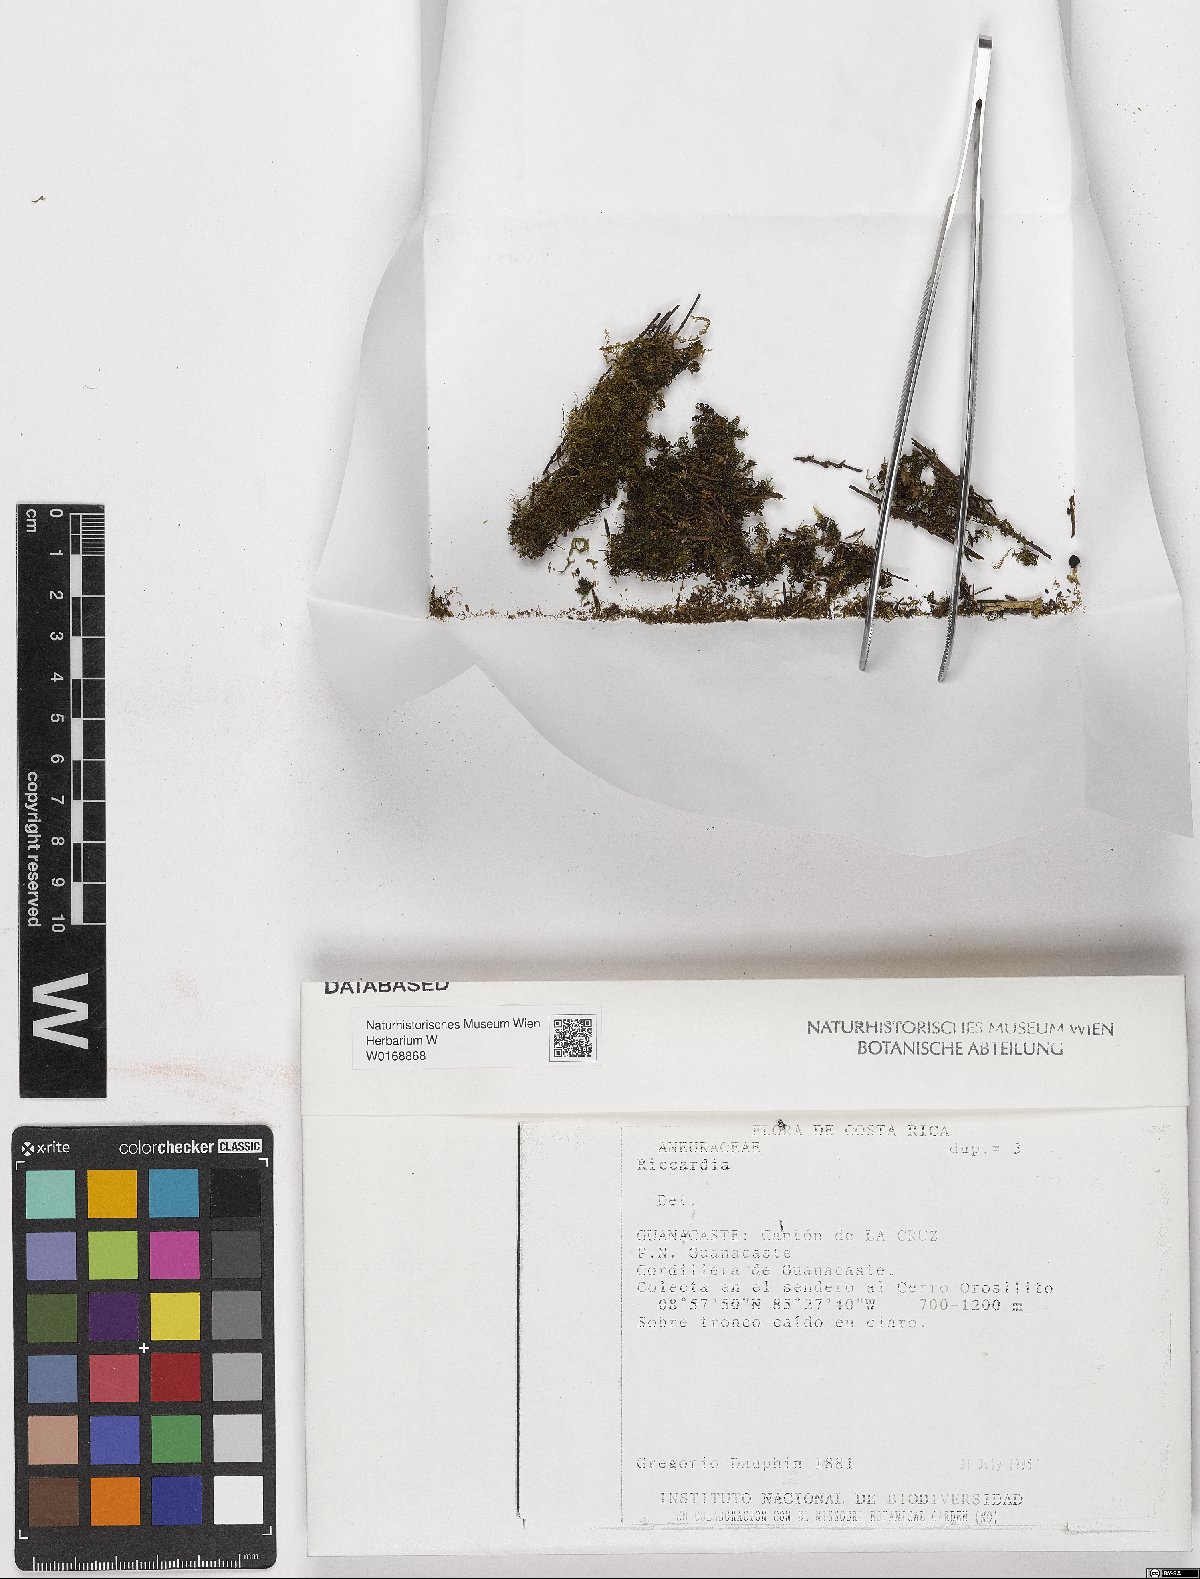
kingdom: Plantae
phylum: Marchantiophyta
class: Jungermanniopsida
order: Metzgeriales
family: Aneuraceae
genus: Riccardia
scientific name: Riccardia
